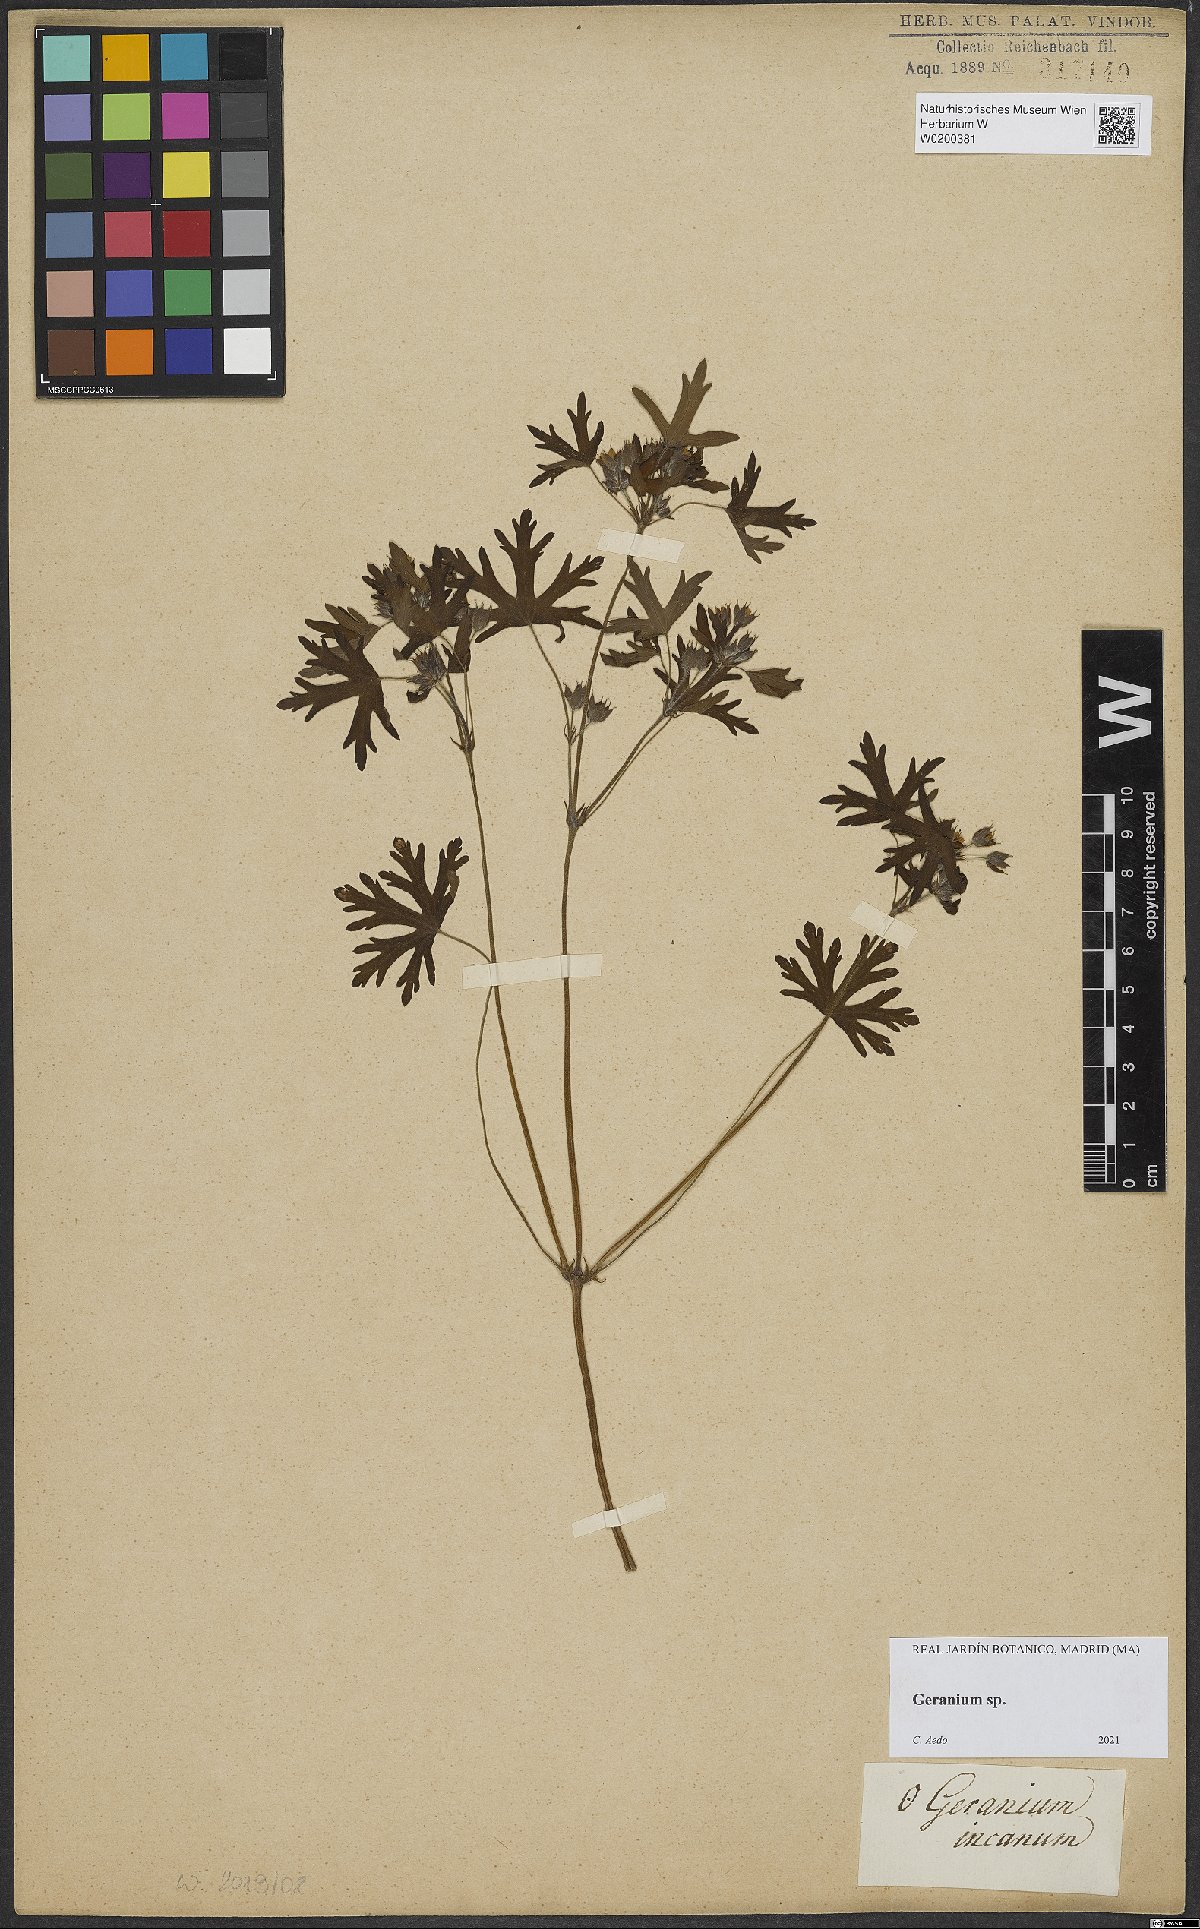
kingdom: Plantae
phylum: Tracheophyta
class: Magnoliopsida
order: Geraniales
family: Geraniaceae
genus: Geranium
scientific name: Geranium
